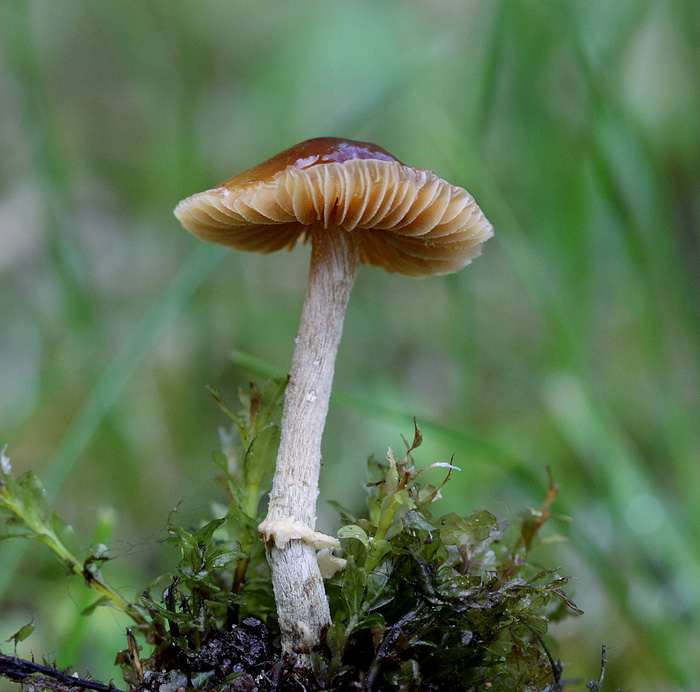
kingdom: Fungi
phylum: Basidiomycota
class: Agaricomycetes
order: Agaricales
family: Bolbitiaceae
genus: Conocybe
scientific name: Conocybe aporos
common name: tidlig dansehat
